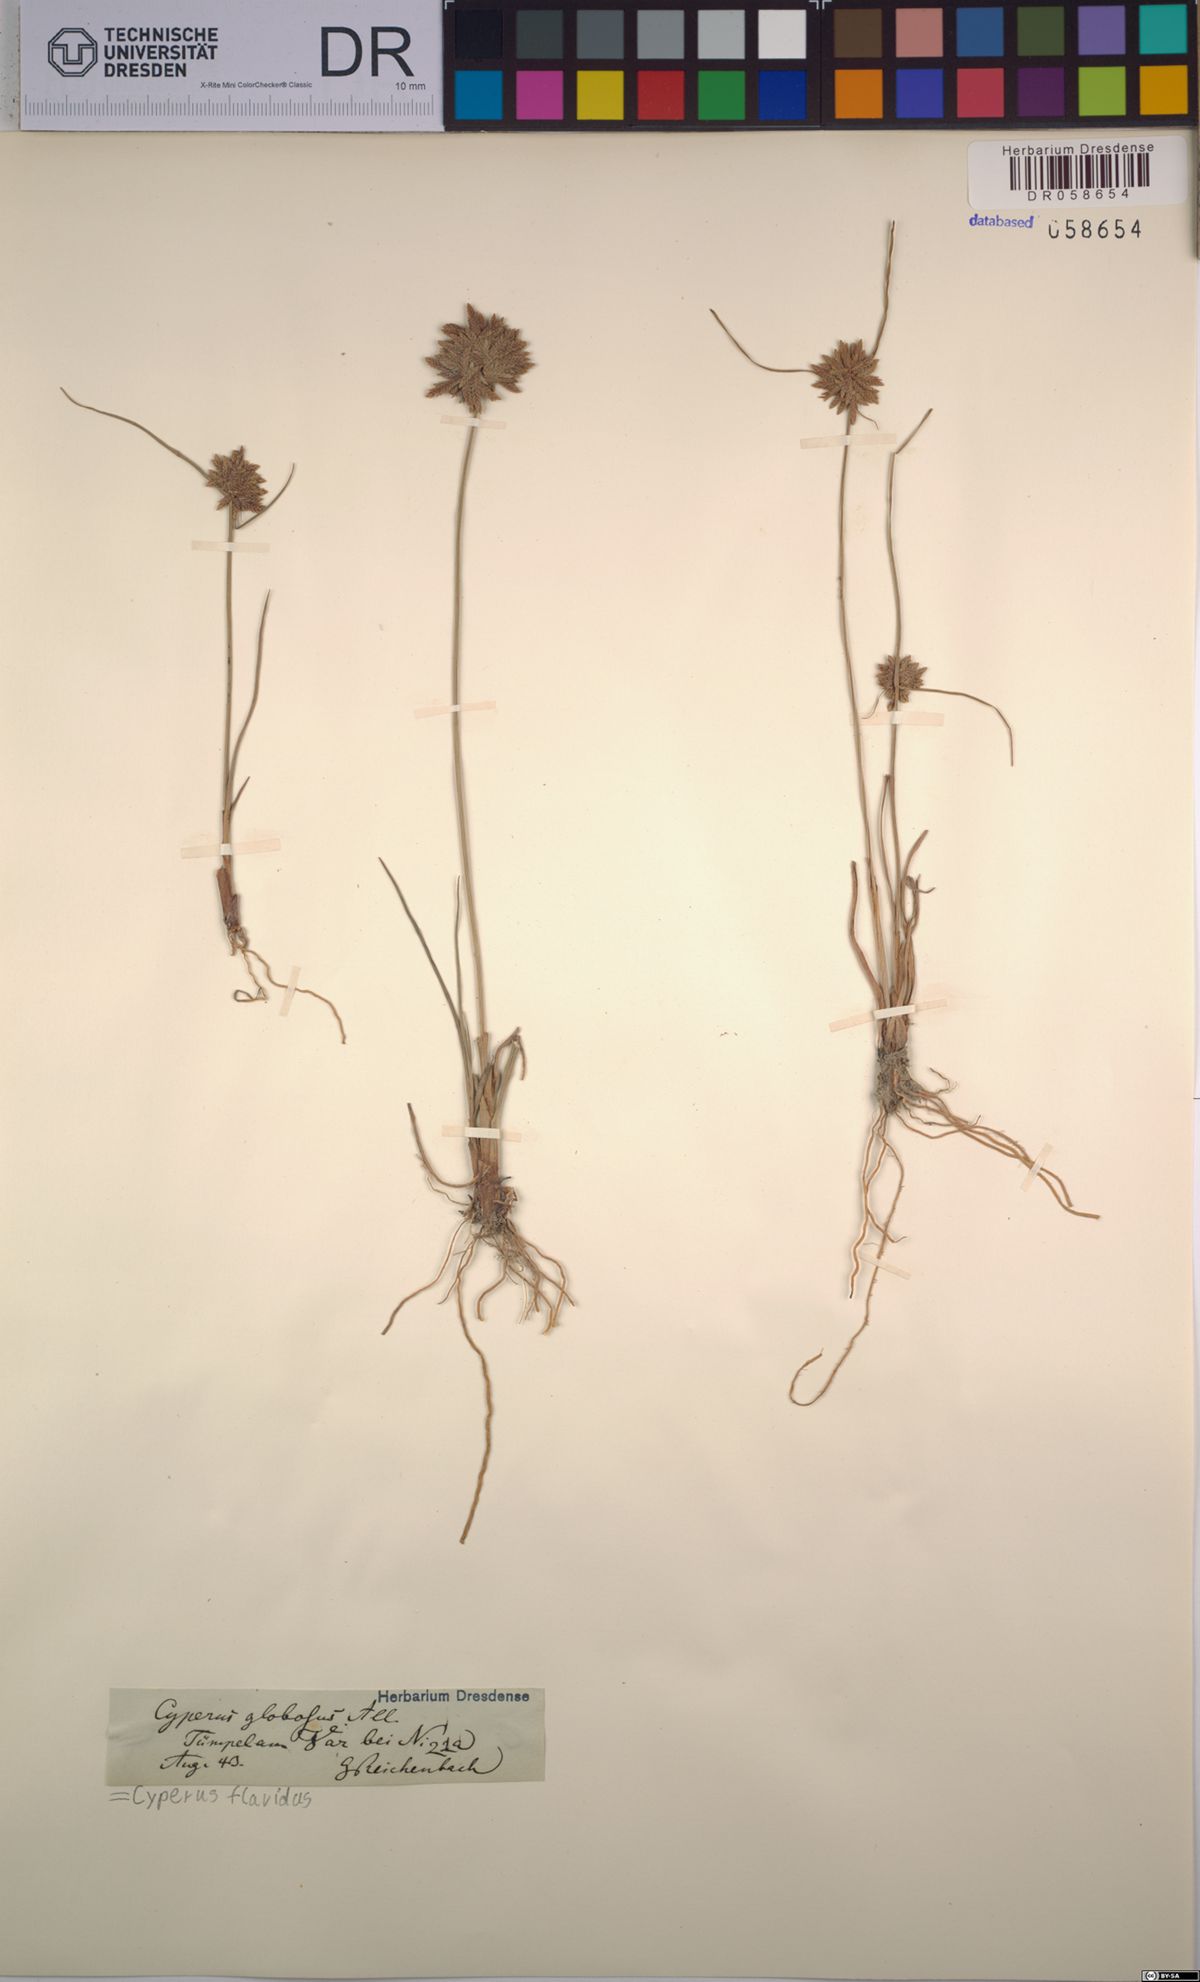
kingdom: Plantae
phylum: Tracheophyta
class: Liliopsida
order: Poales
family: Cyperaceae
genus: Cyperus
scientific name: Cyperus flavidus
